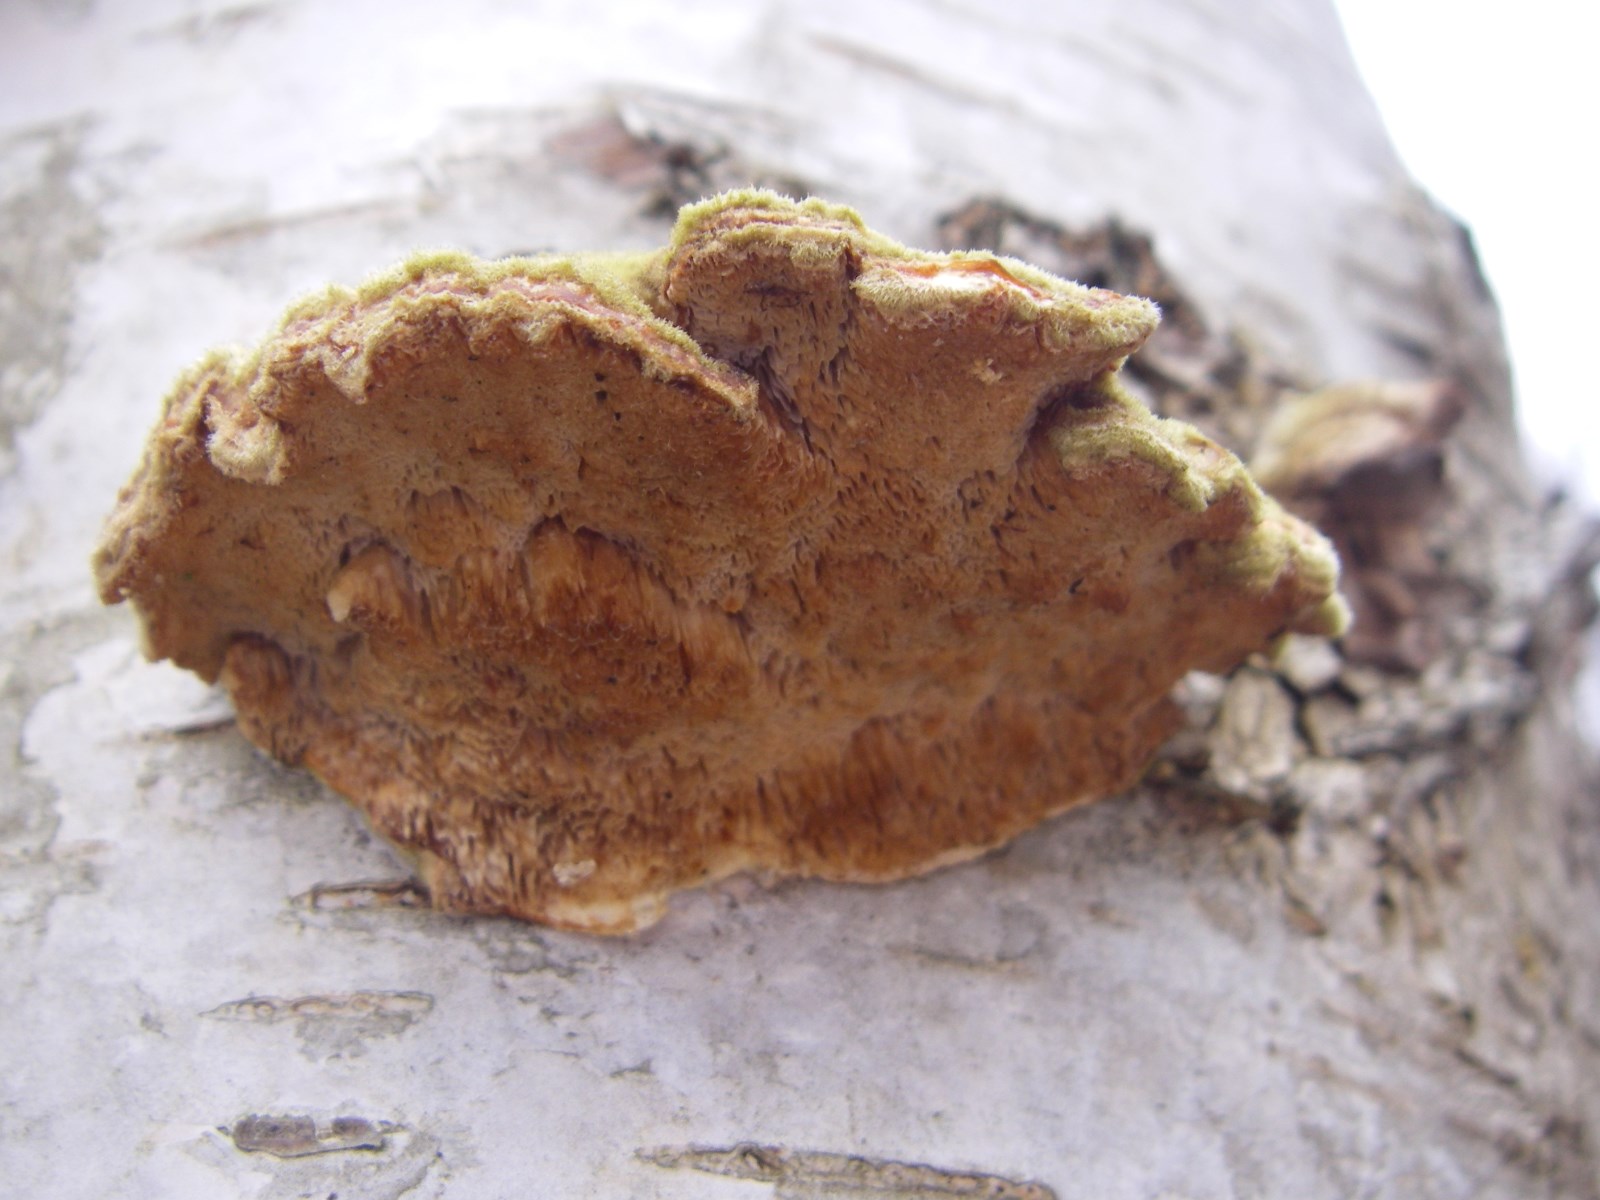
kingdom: Fungi
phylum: Basidiomycota
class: Agaricomycetes
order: Polyporales
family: Polyporaceae
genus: Trametes
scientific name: Trametes ochracea
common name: bæltet læderporesvamp
